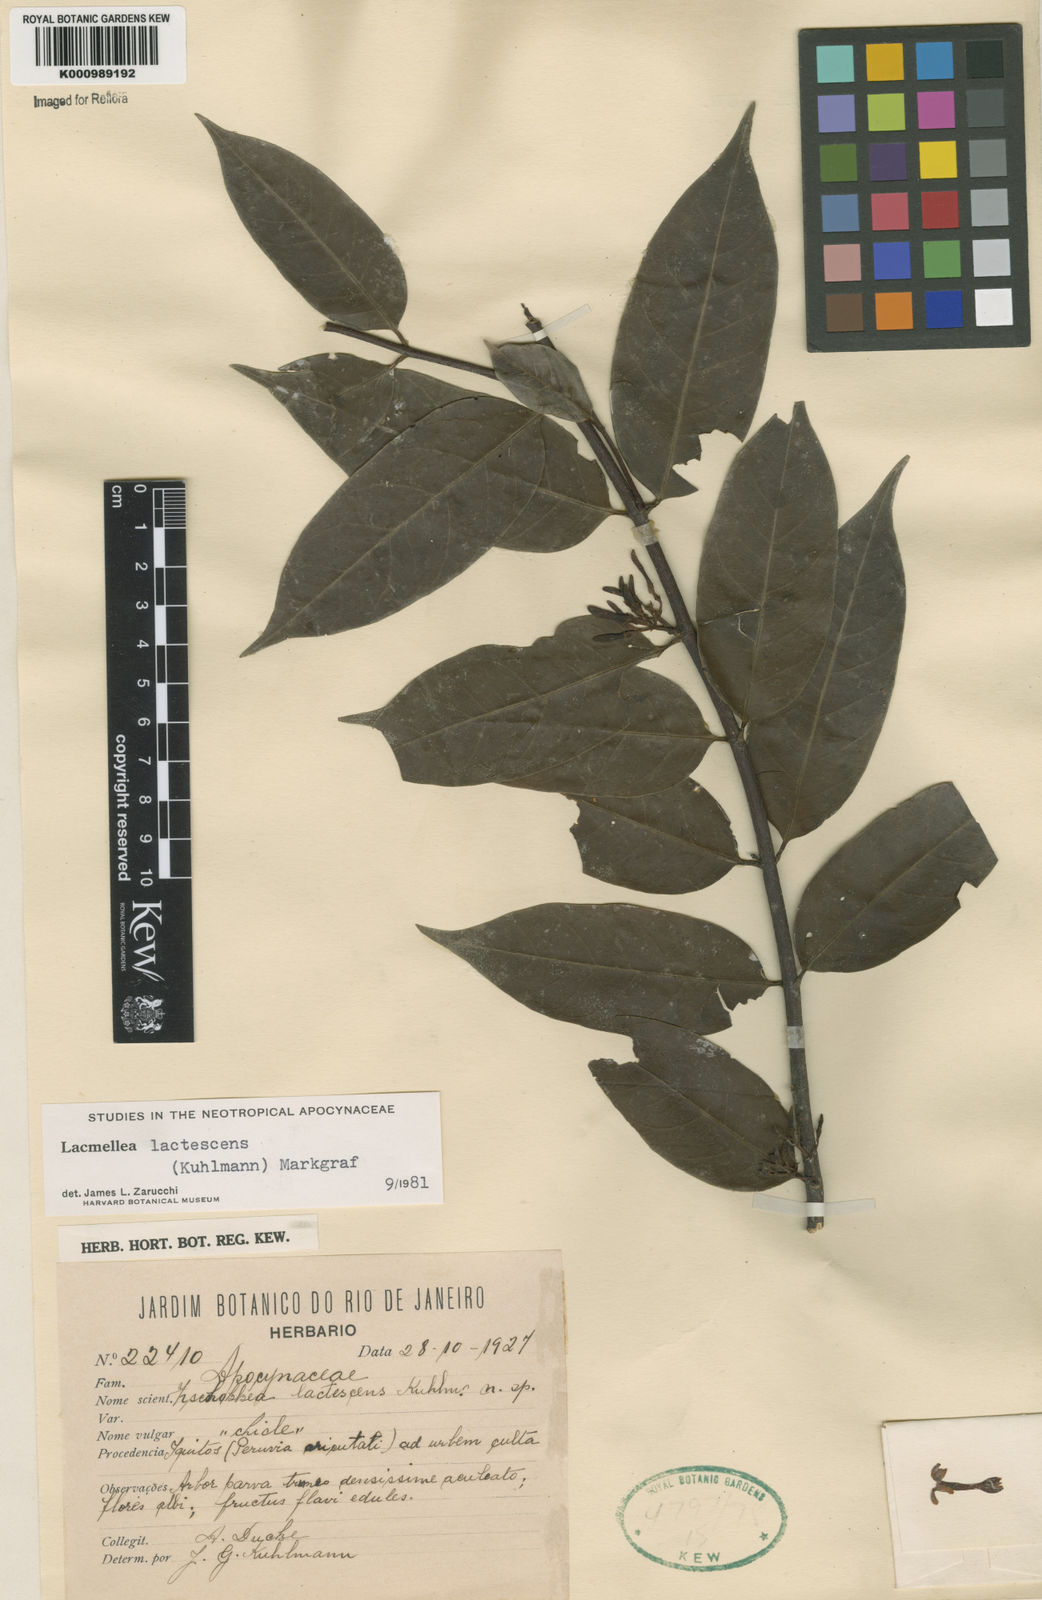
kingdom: Plantae
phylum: Tracheophyta
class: Magnoliopsida
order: Gentianales
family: Apocynaceae
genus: Lacmellea
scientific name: Lacmellea
